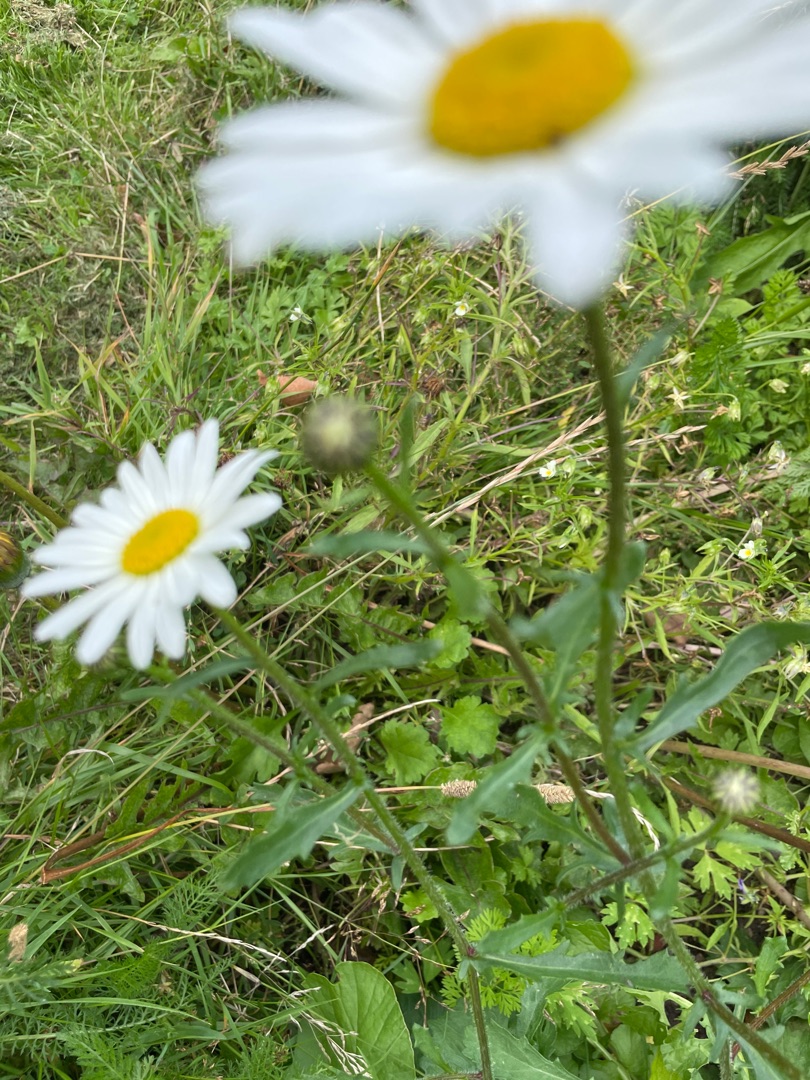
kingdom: Plantae
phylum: Tracheophyta
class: Magnoliopsida
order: Asterales
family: Asteraceae
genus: Leucanthemum
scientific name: Leucanthemum vulgare
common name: Hvid okseøje
